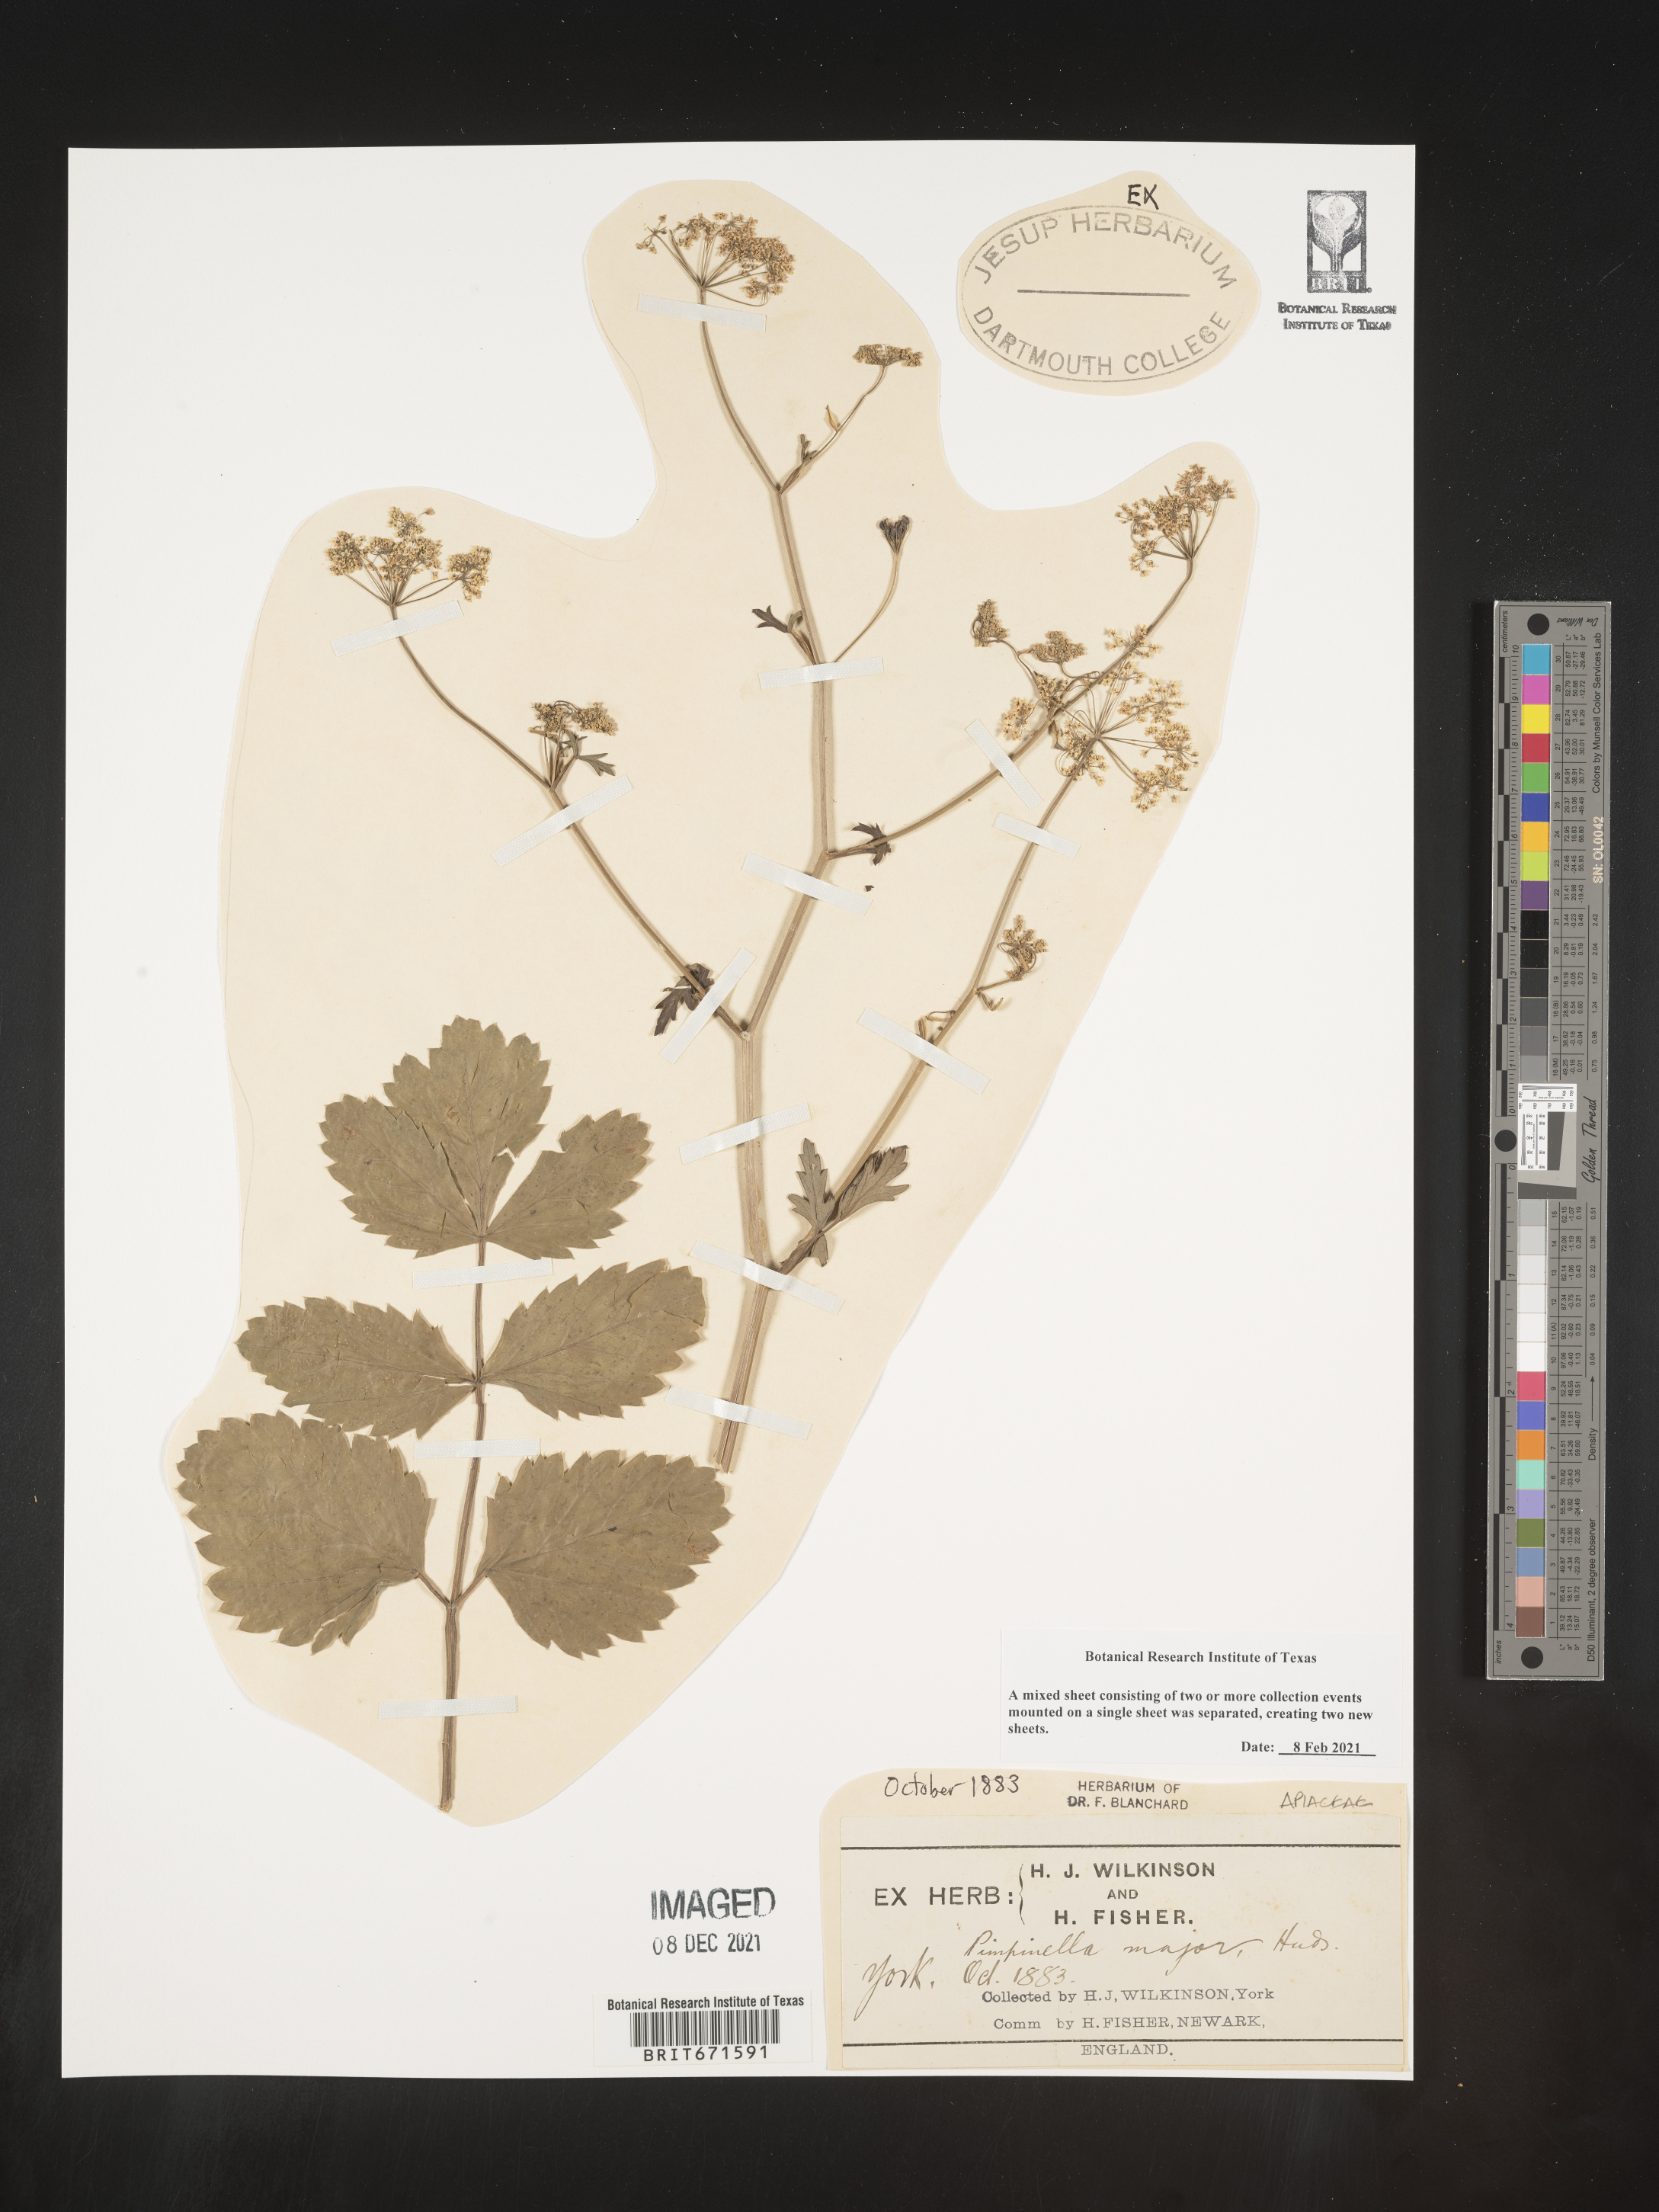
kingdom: Plantae
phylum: Tracheophyta
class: Magnoliopsida
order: Apiales
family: Apiaceae
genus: Pimpinella
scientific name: Pimpinella major
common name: Greater burnet-saxifrage
